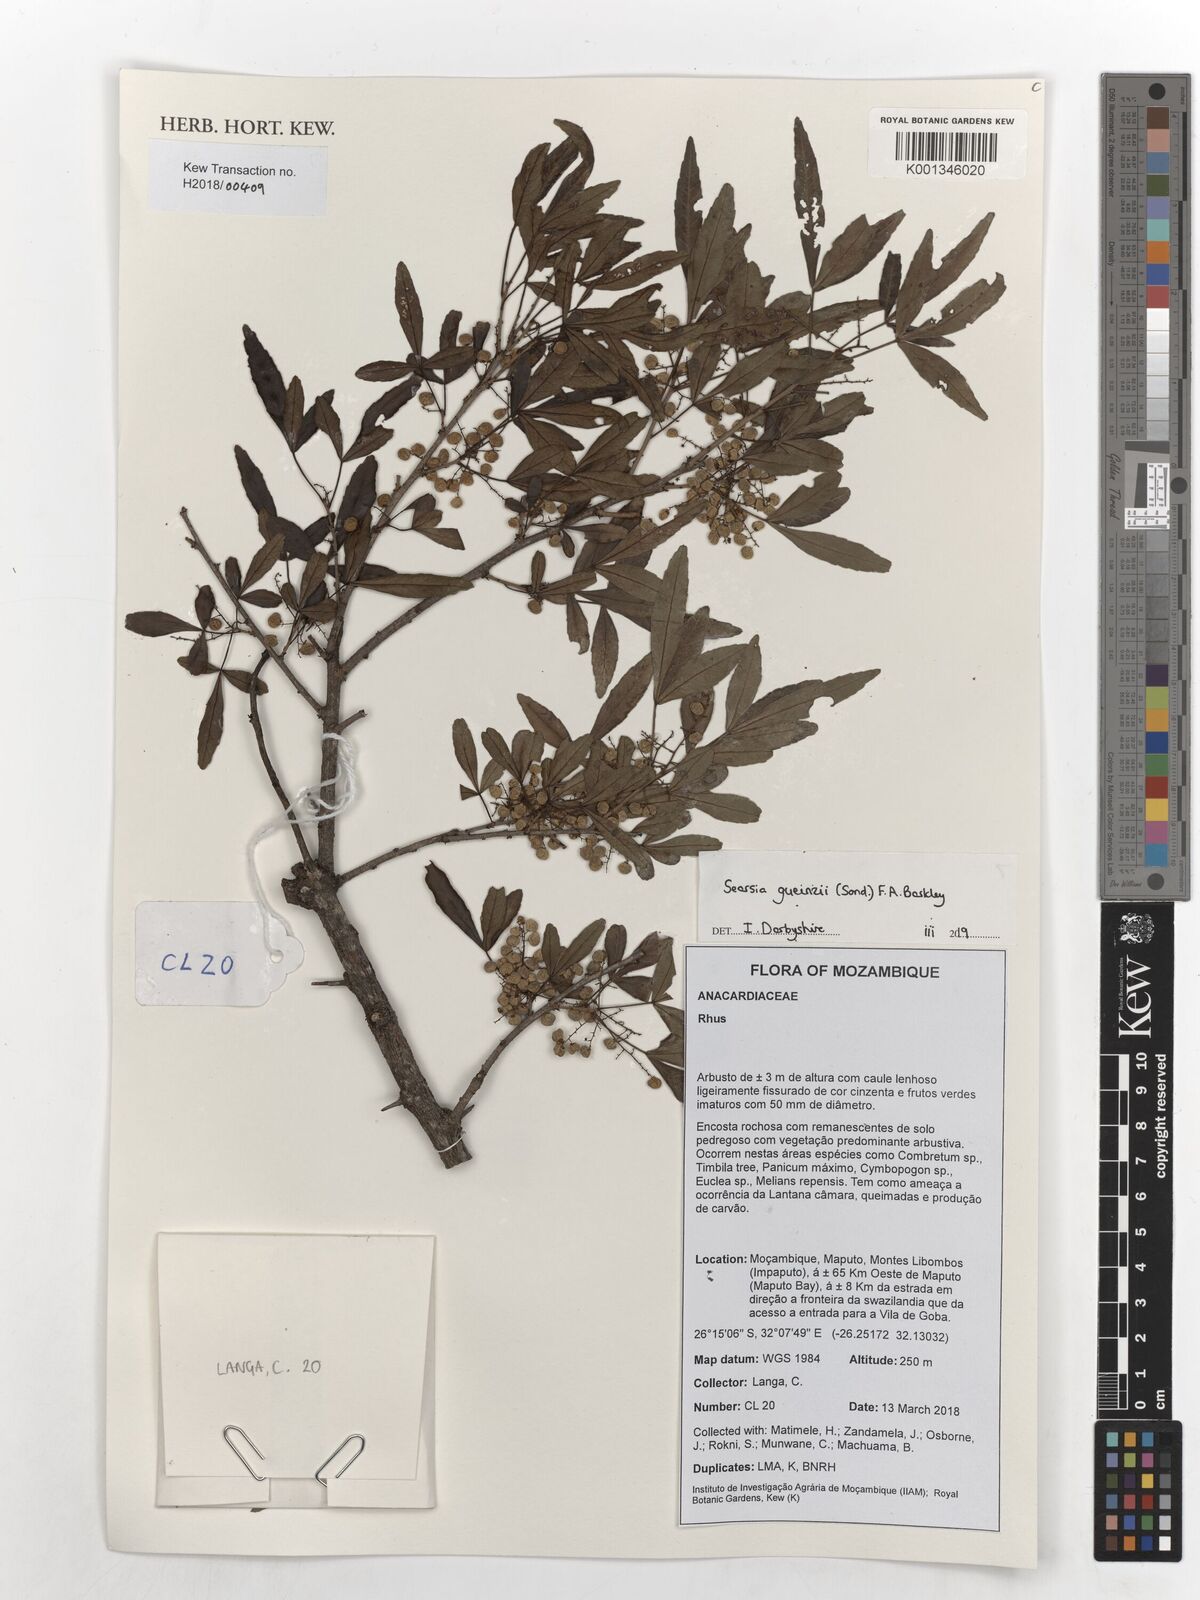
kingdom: Plantae
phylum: Tracheophyta
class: Magnoliopsida
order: Sapindales
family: Anacardiaceae
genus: Searsia
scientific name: Searsia gueinzii
